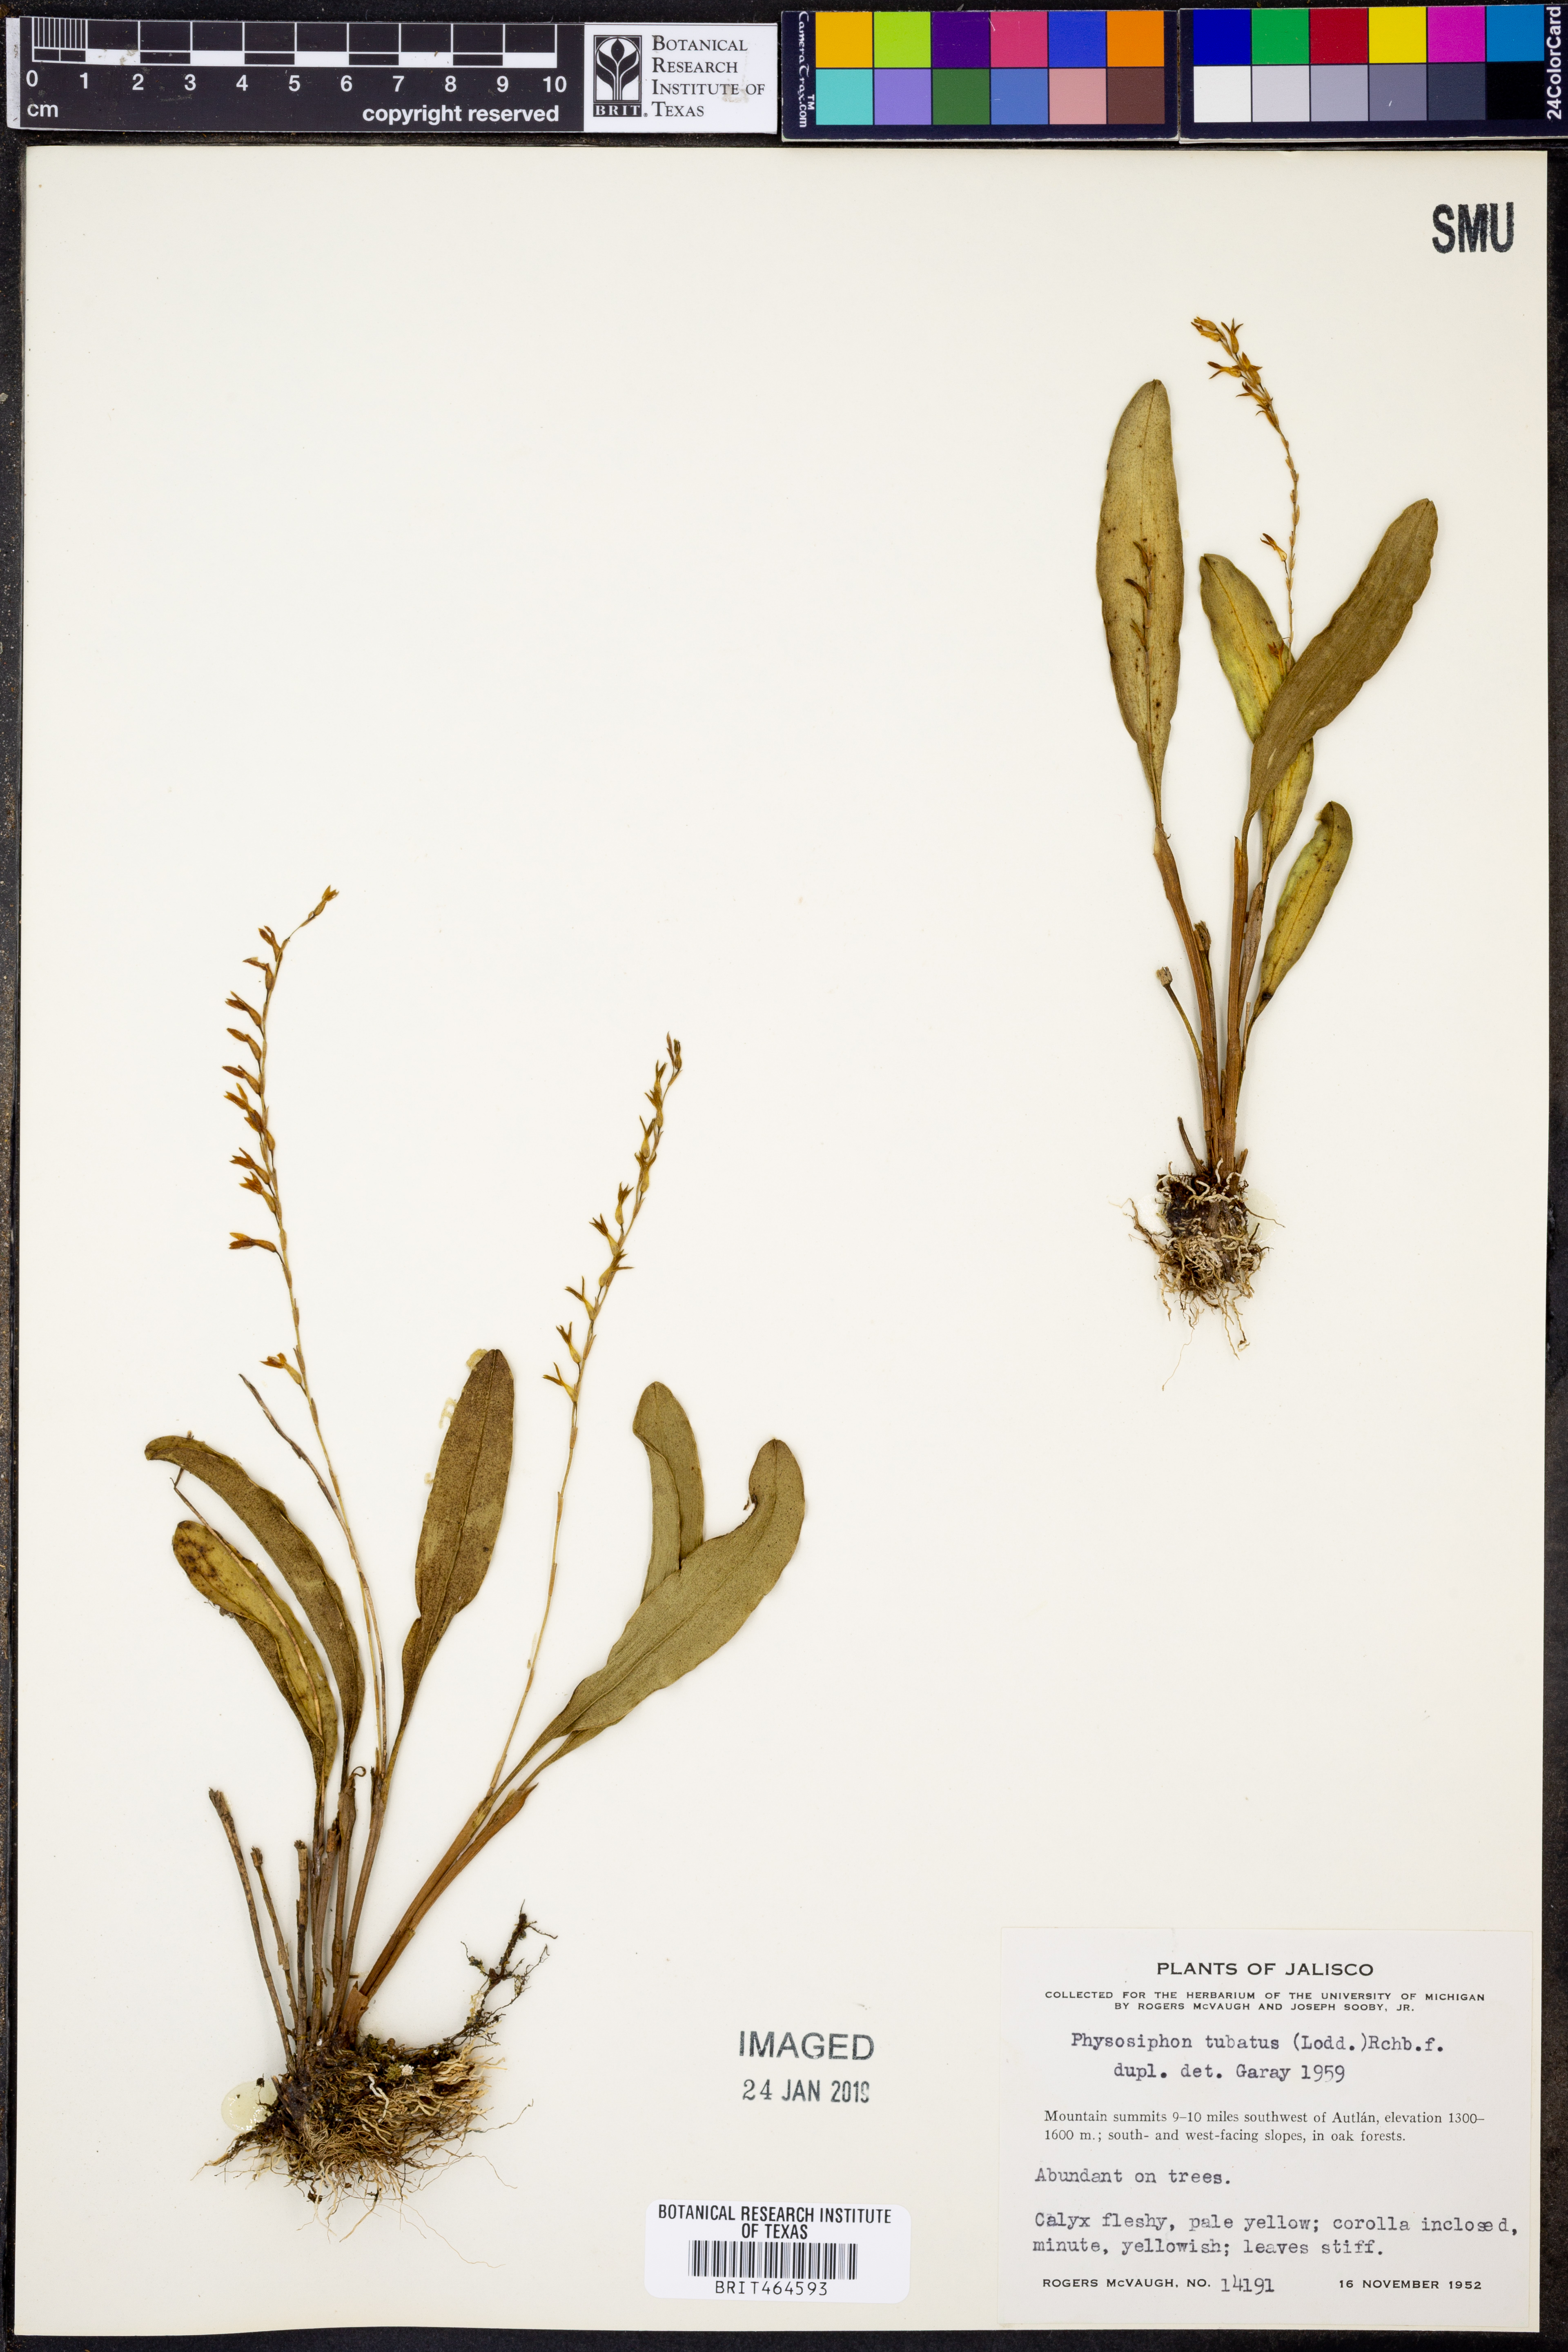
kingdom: Plantae
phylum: Tracheophyta
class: Liliopsida
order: Asparagales
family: Orchidaceae
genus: Stelis
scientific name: Stelis emarginata
